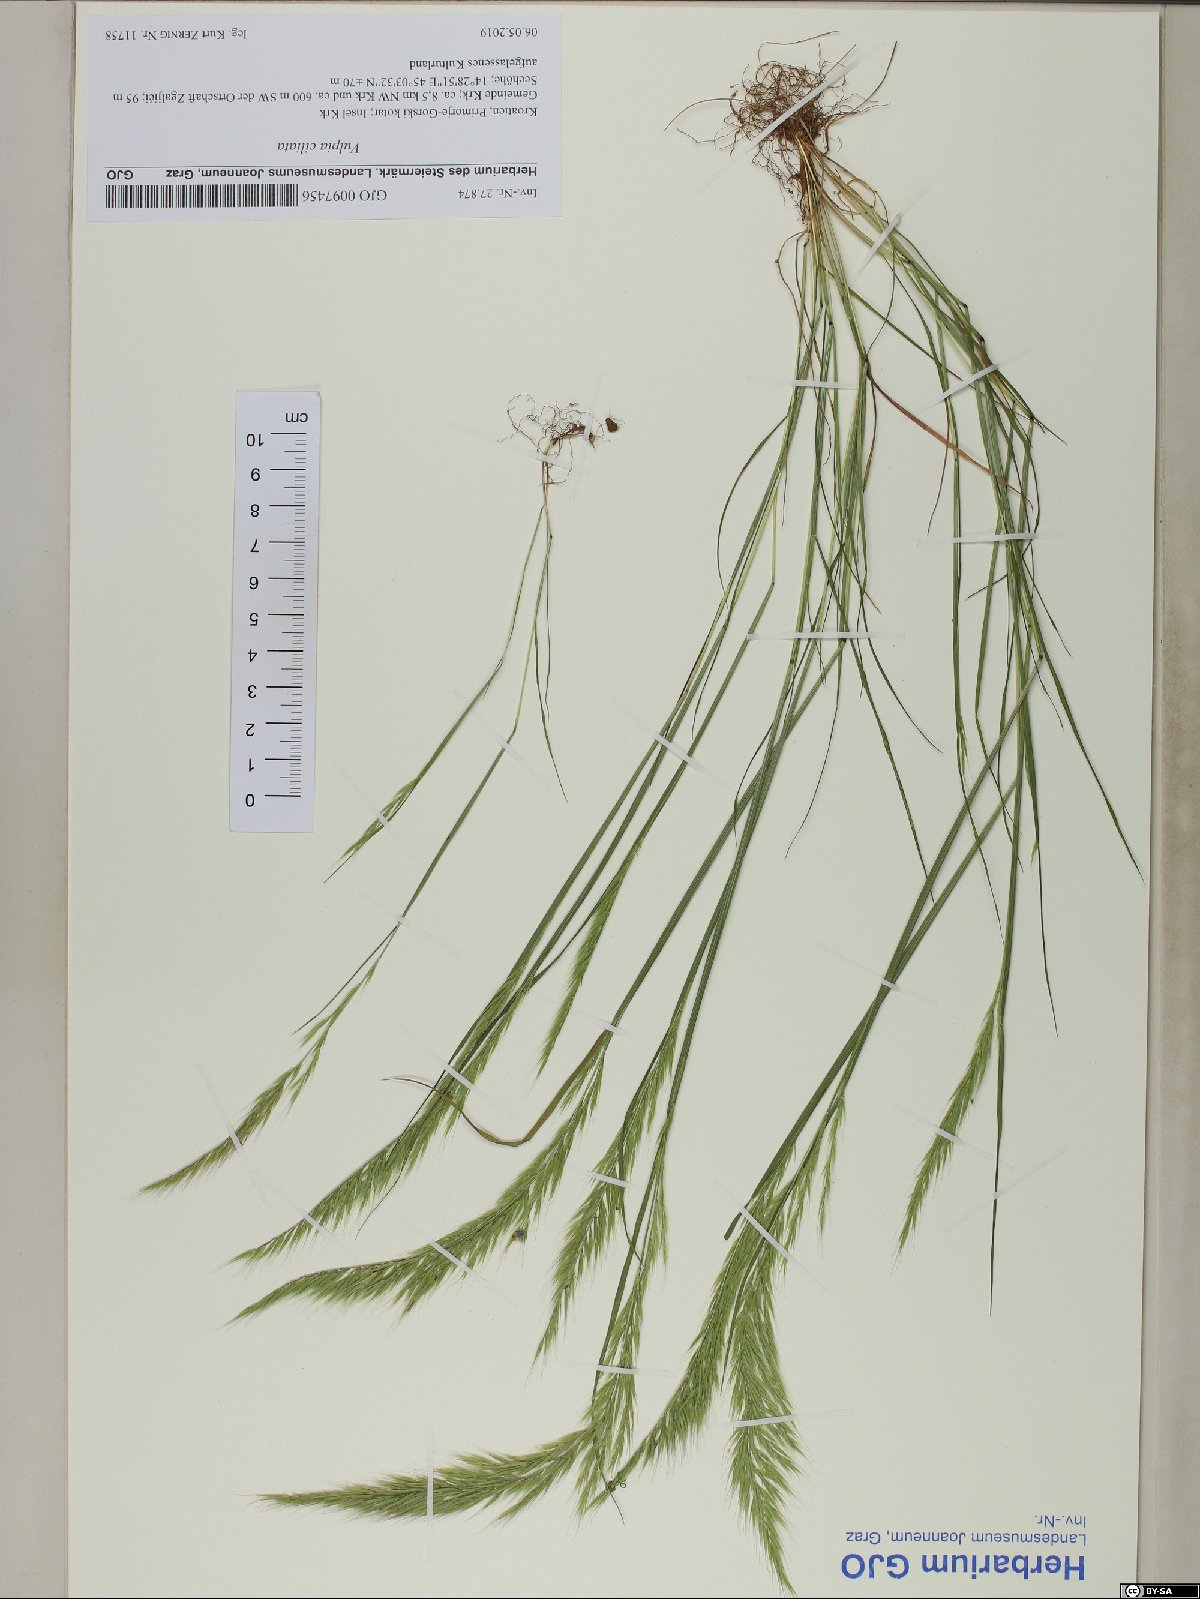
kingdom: Plantae
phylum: Tracheophyta
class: Liliopsida
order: Poales
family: Poaceae
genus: Festuca
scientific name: Festuca ambigua
